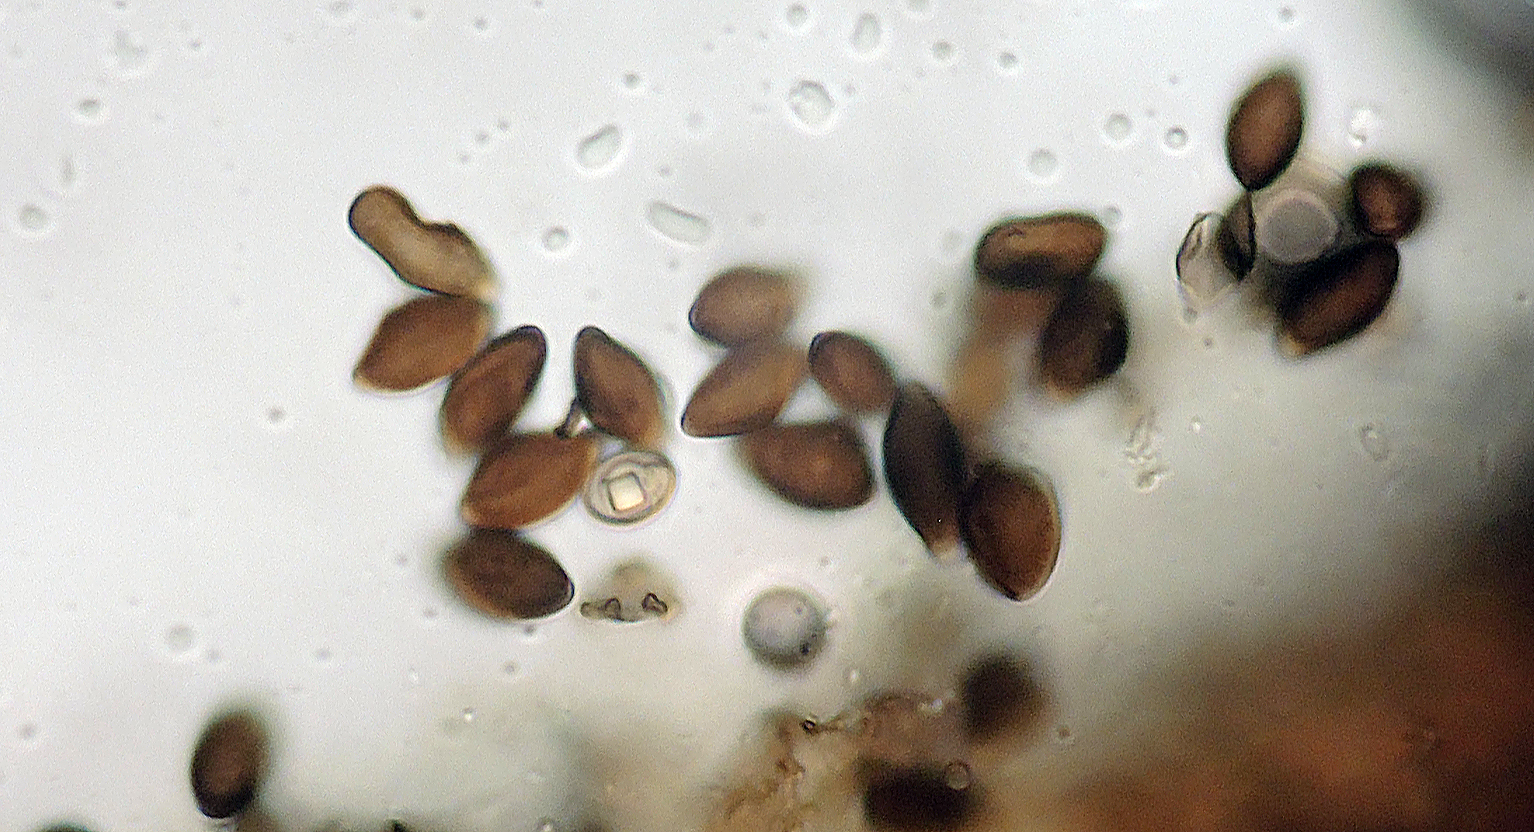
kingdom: Fungi
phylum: Ascomycota
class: Sordariomycetes
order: Xylariales
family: Apiosporaceae
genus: Arthrinium
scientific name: Arthrinium sporophleum
